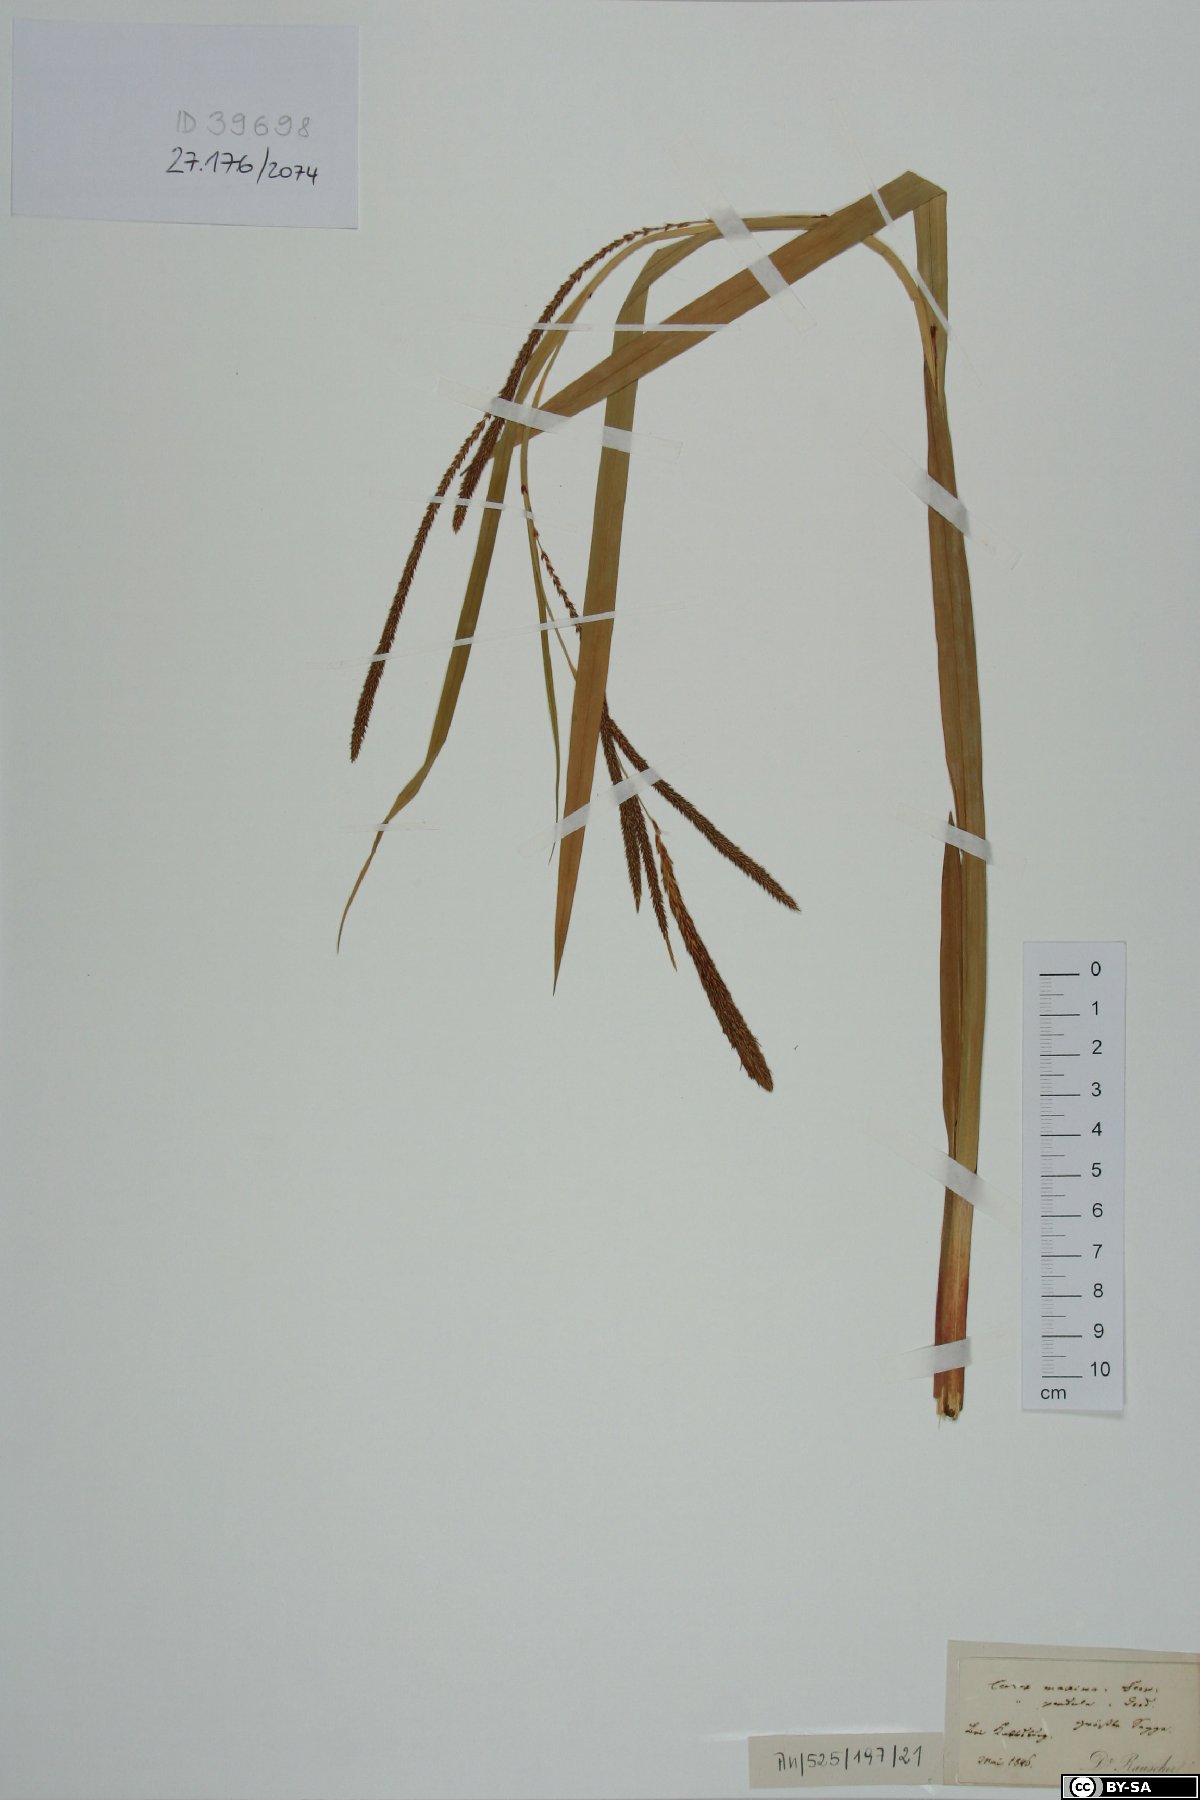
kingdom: Plantae
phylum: Tracheophyta
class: Liliopsida
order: Poales
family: Cyperaceae
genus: Carex
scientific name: Carex pendula
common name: Pendulous sedge
